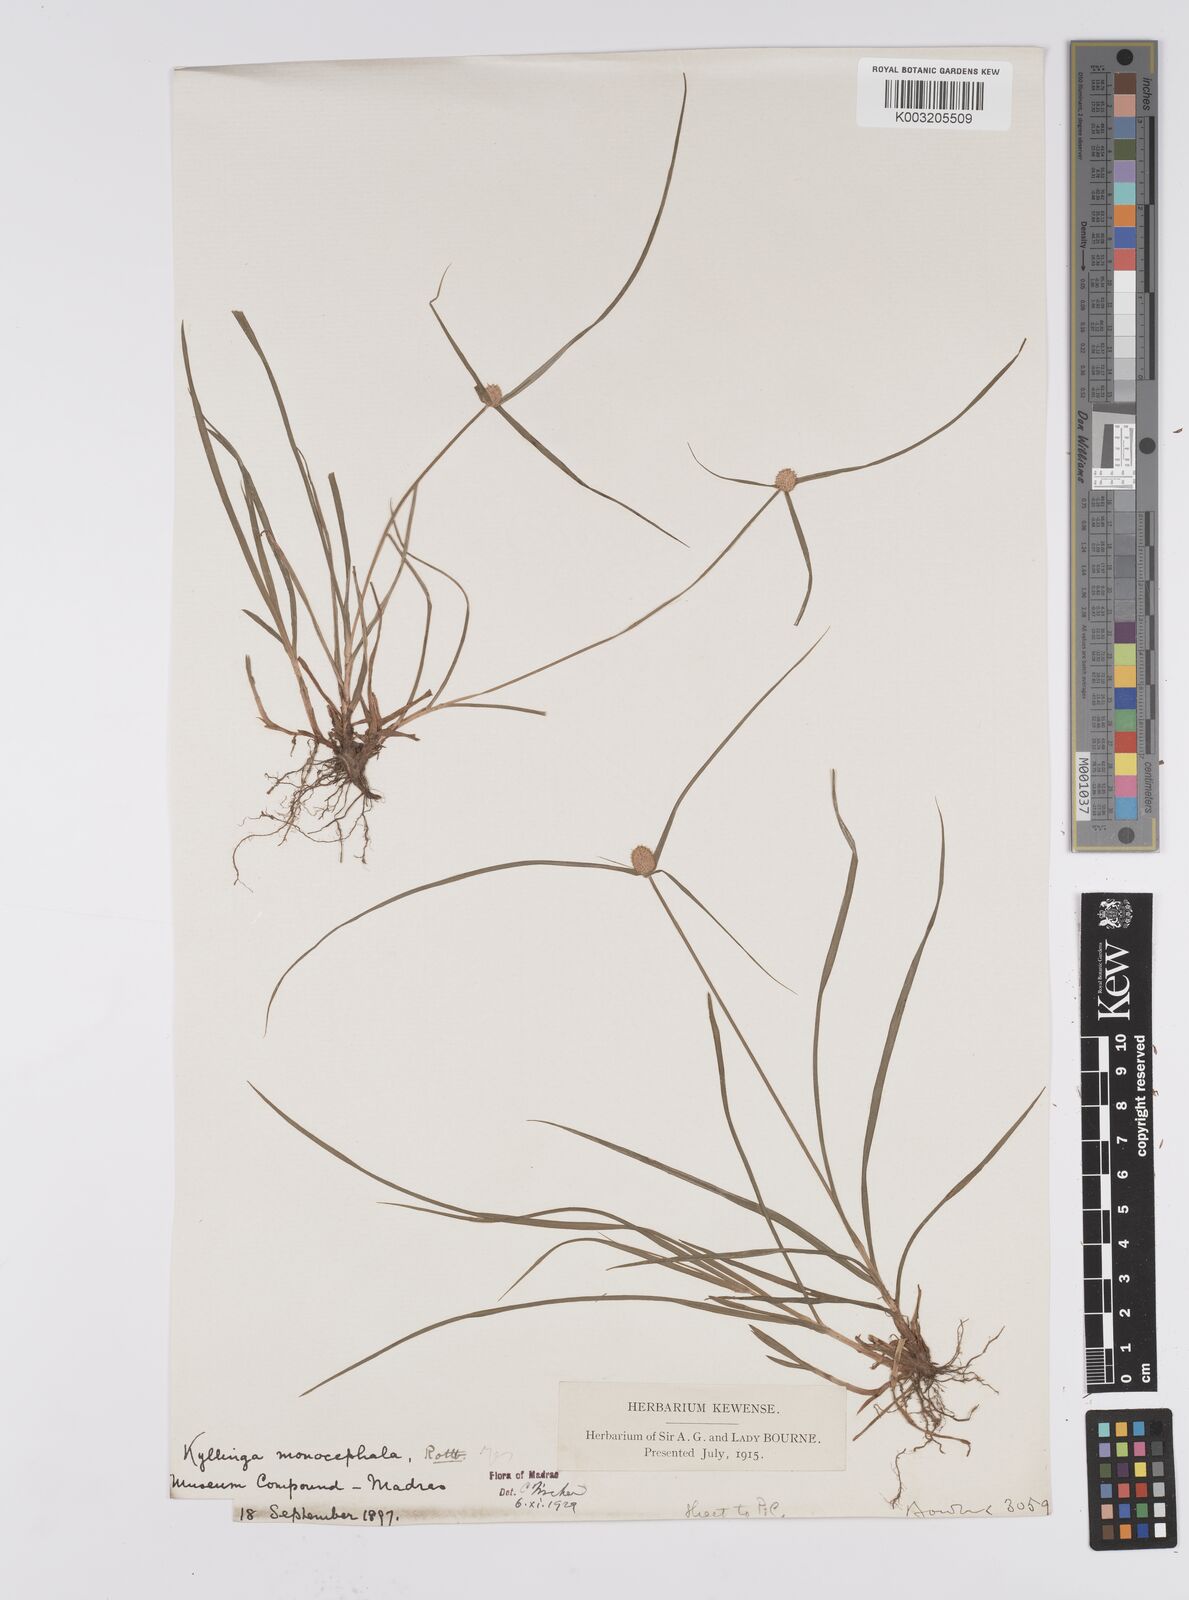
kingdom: Plantae
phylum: Tracheophyta
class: Liliopsida
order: Poales
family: Cyperaceae
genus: Cyperus
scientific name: Cyperus nemoralis
